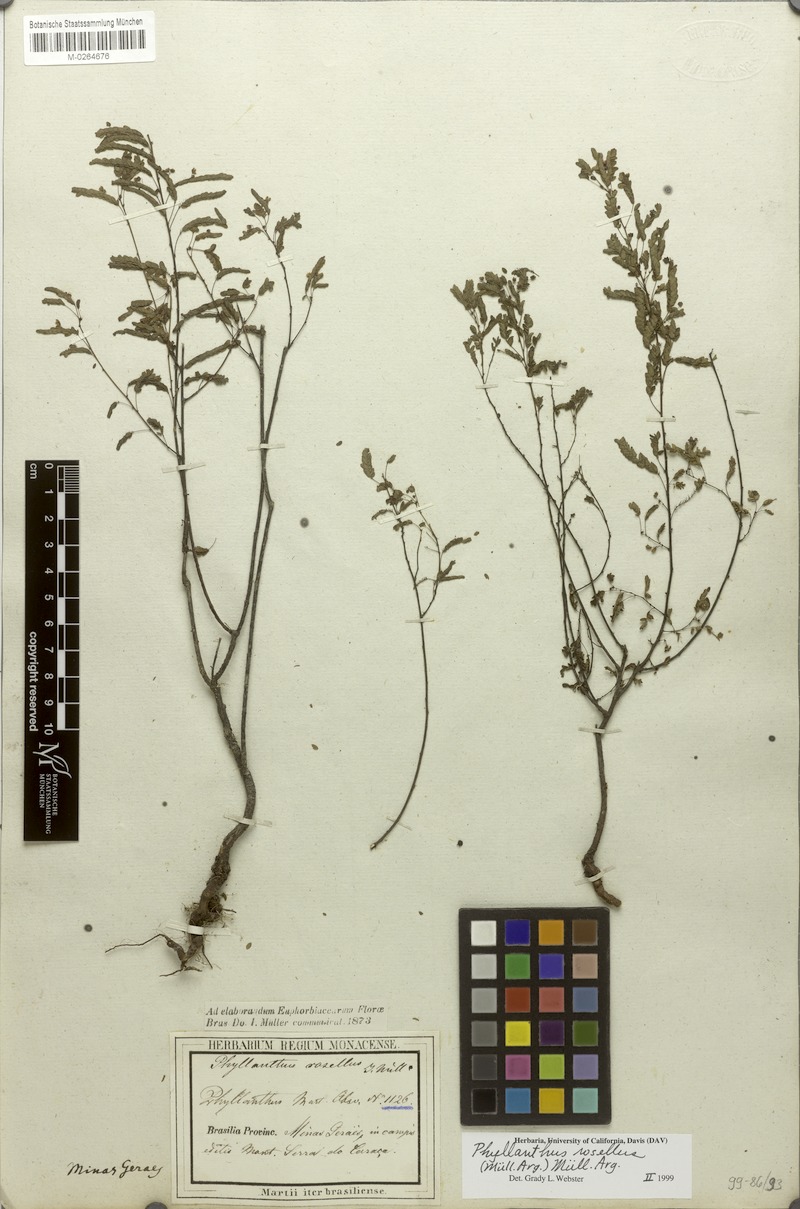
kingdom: Plantae
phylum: Tracheophyta
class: Magnoliopsida
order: Malpighiales
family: Phyllanthaceae
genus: Phyllanthus
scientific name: Phyllanthus niruri
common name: Niruri
